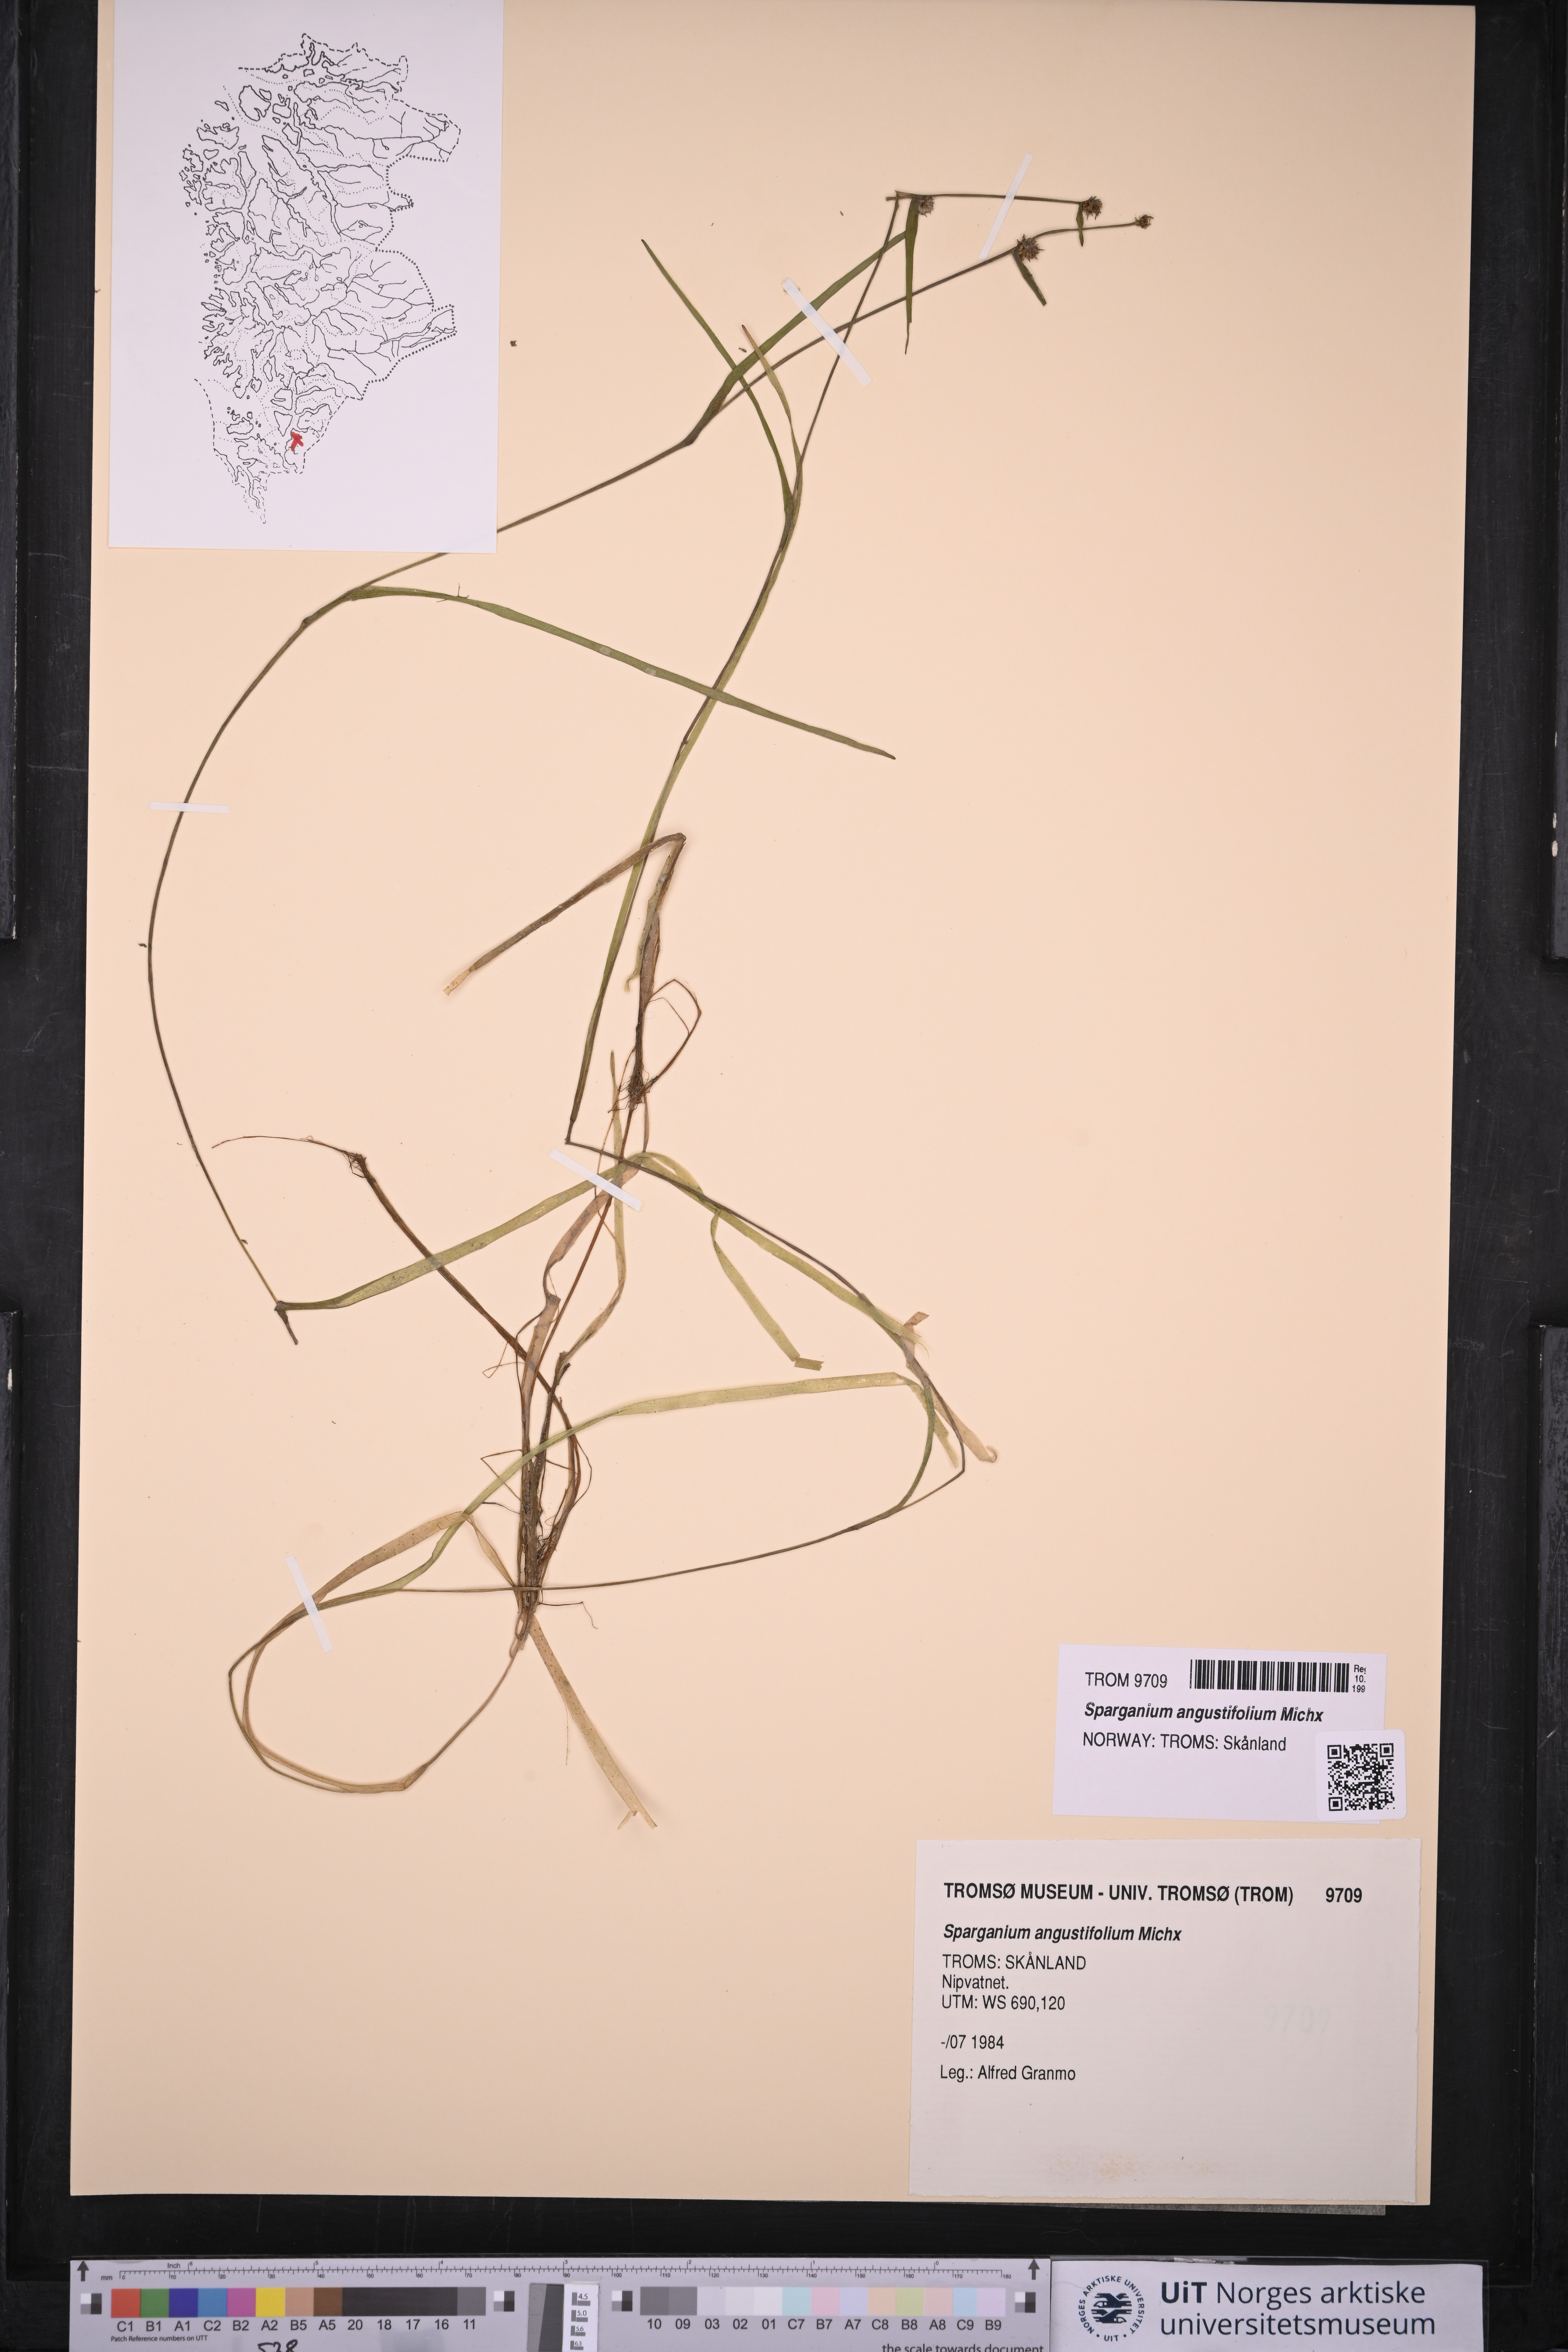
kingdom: Plantae
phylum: Tracheophyta
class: Liliopsida
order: Poales
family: Typhaceae
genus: Sparganium
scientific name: Sparganium angustifolium
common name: Floating bur-reed
